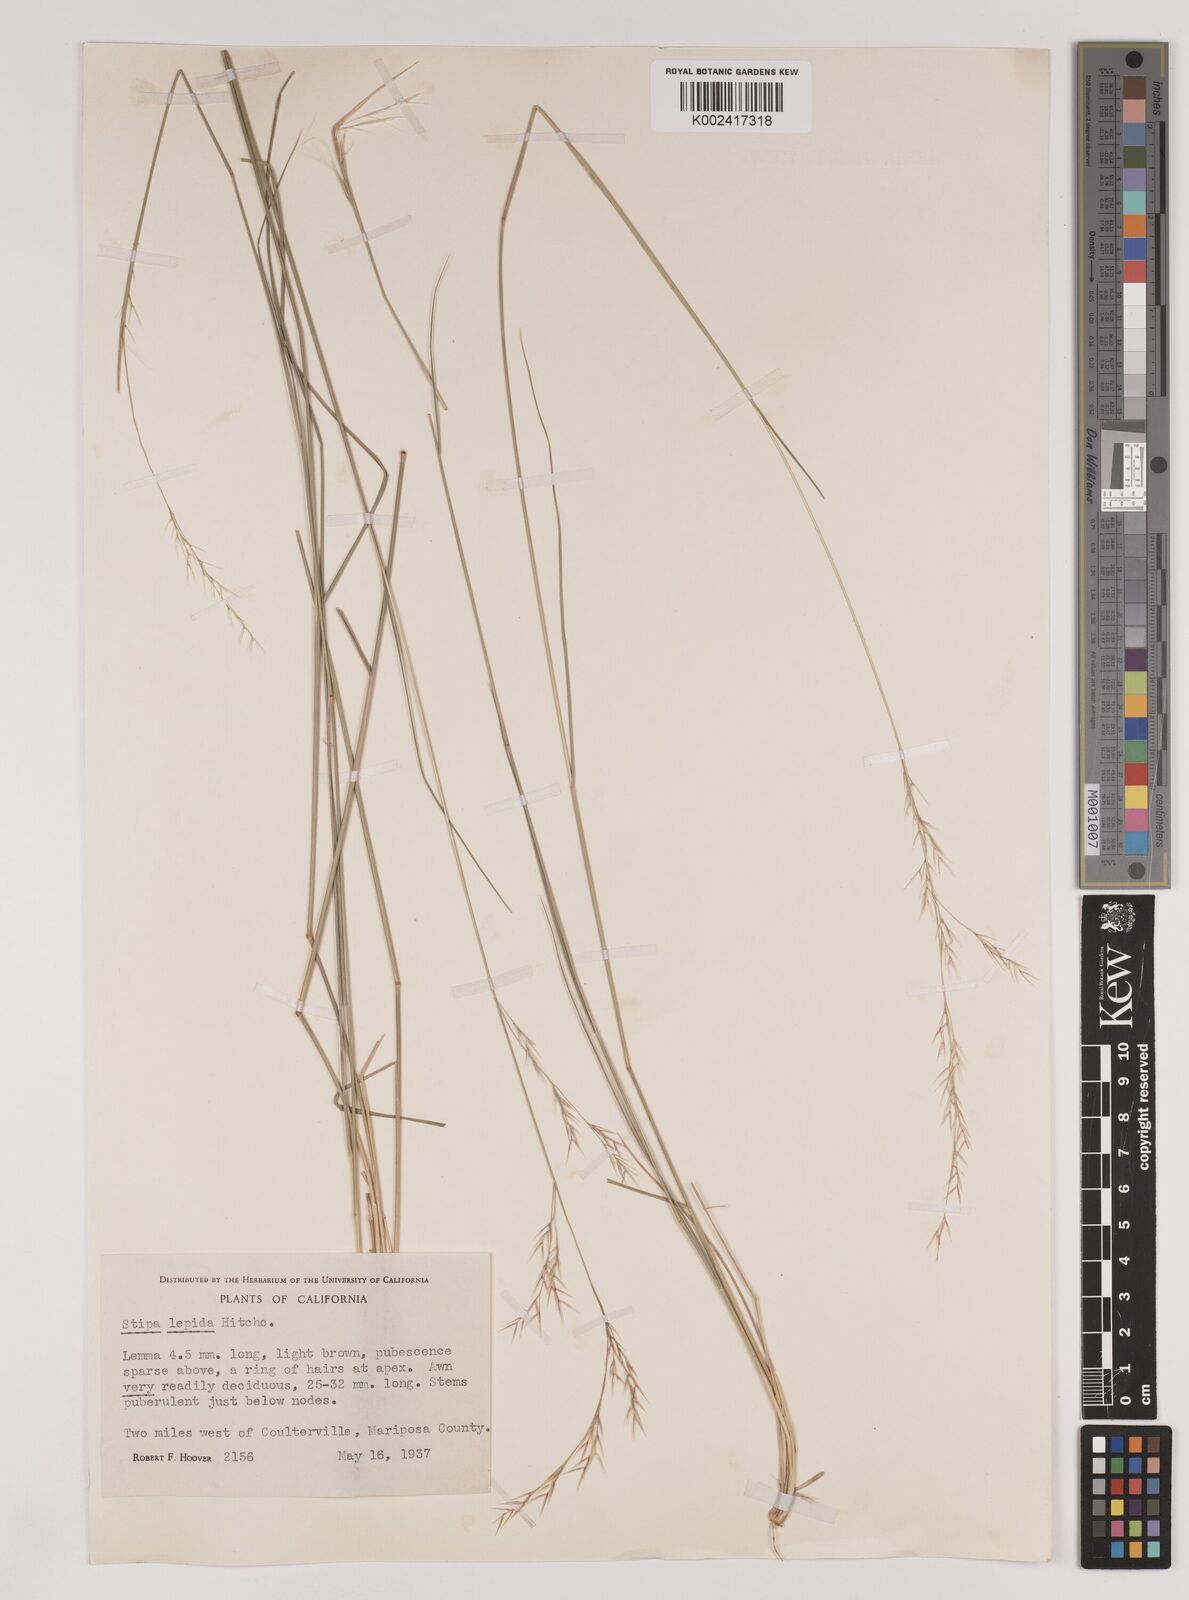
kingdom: Plantae
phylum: Tracheophyta
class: Liliopsida
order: Poales
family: Poaceae
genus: Nassella
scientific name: Nassella lepida
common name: Foothill needlegrass
